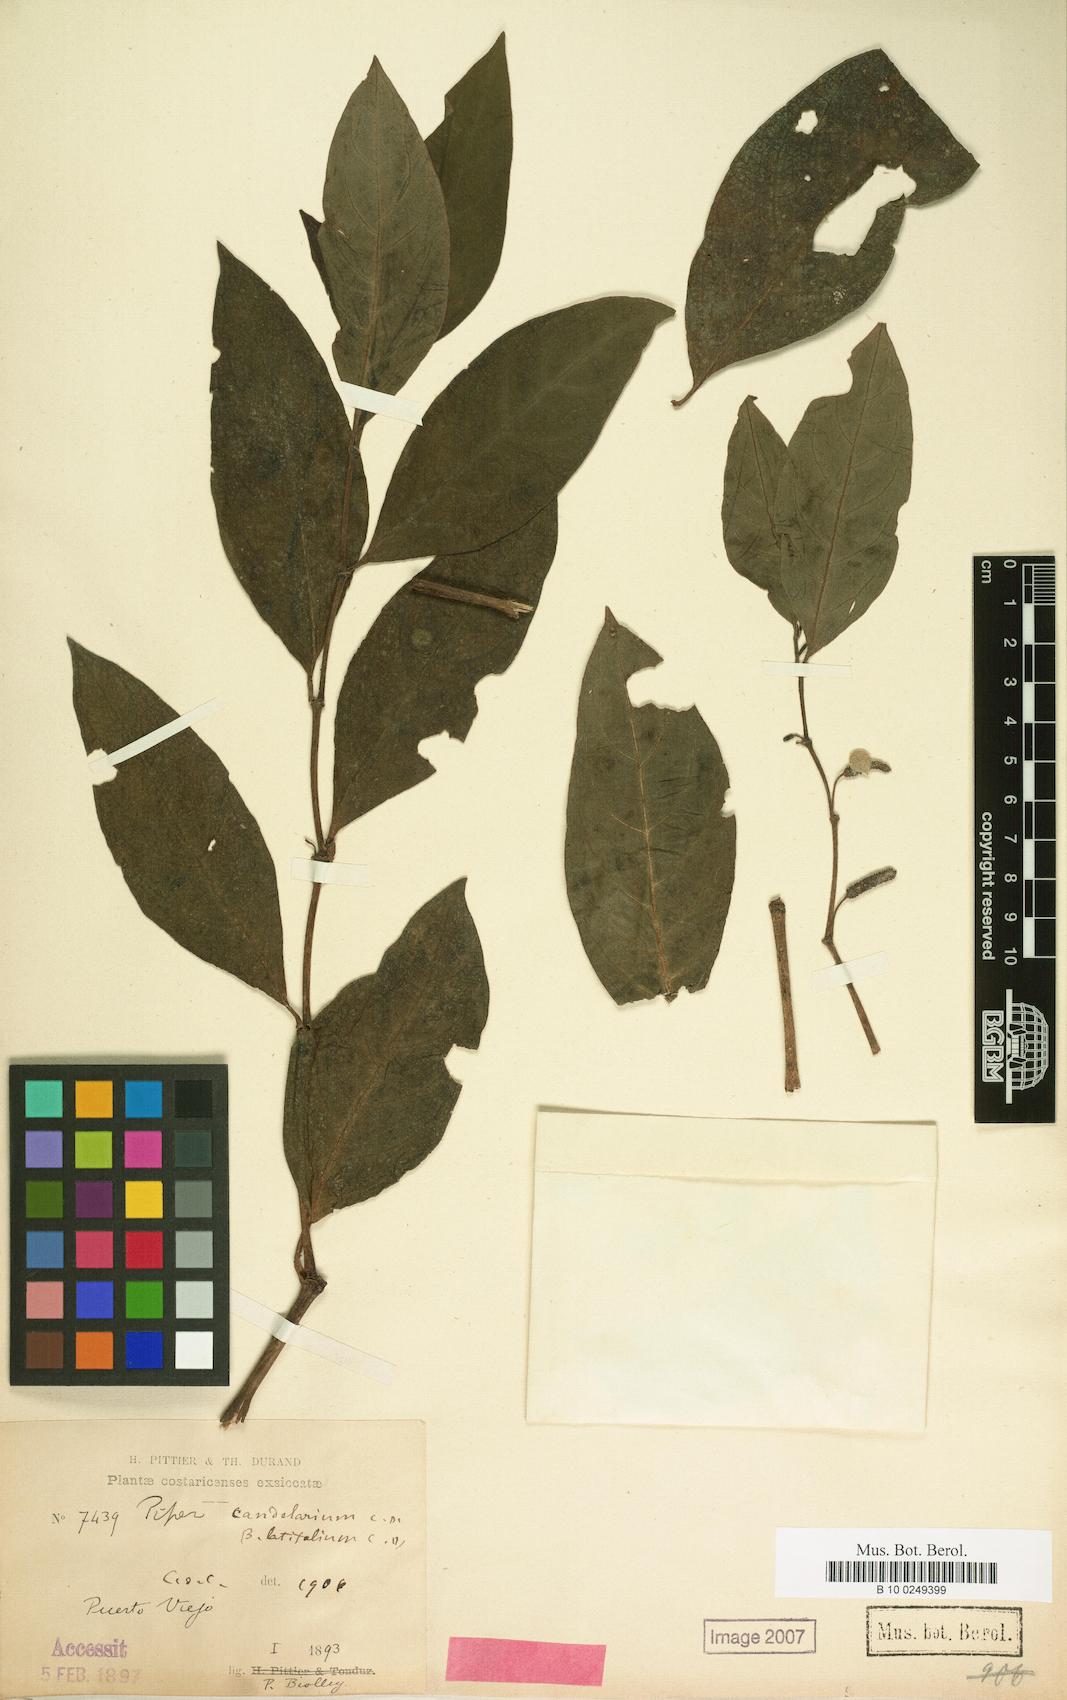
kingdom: Plantae
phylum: Tracheophyta
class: Magnoliopsida
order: Piperales
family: Piperaceae
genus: Piper
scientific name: Piper candelarianum
